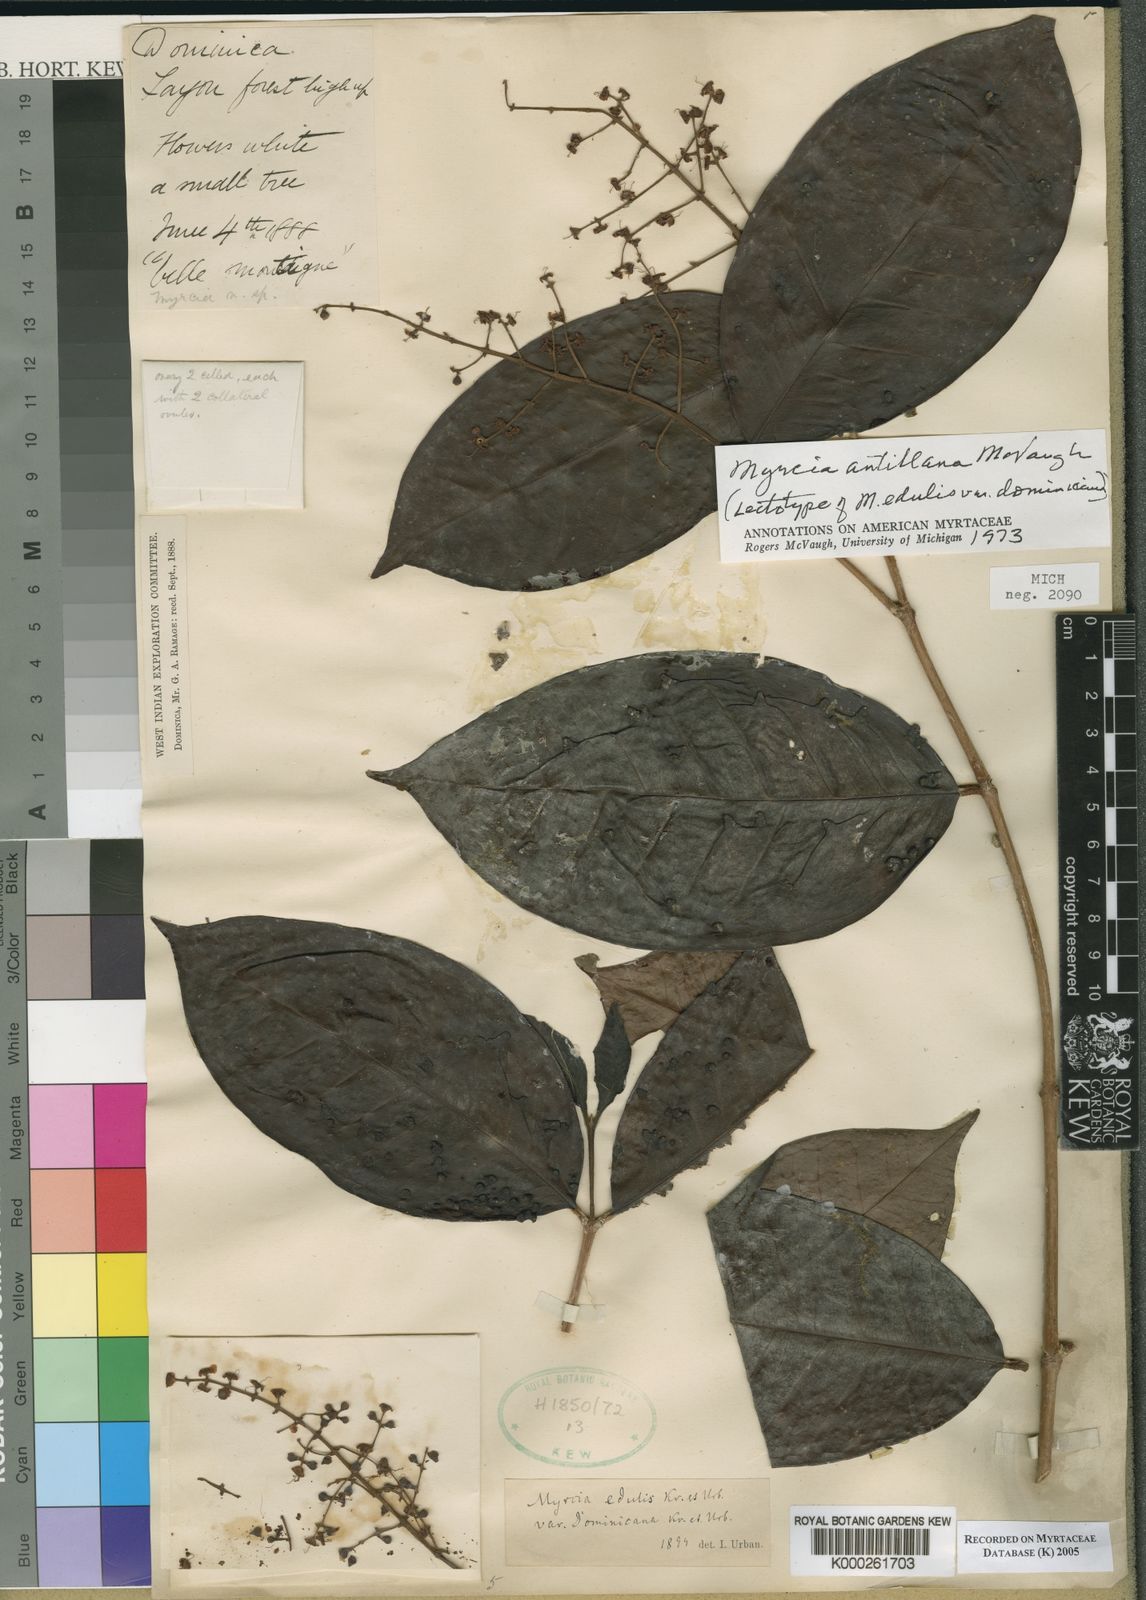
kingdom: Plantae
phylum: Tracheophyta
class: Magnoliopsida
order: Myrtales
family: Myrtaceae
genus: Myrcia
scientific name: Myrcia antillana
